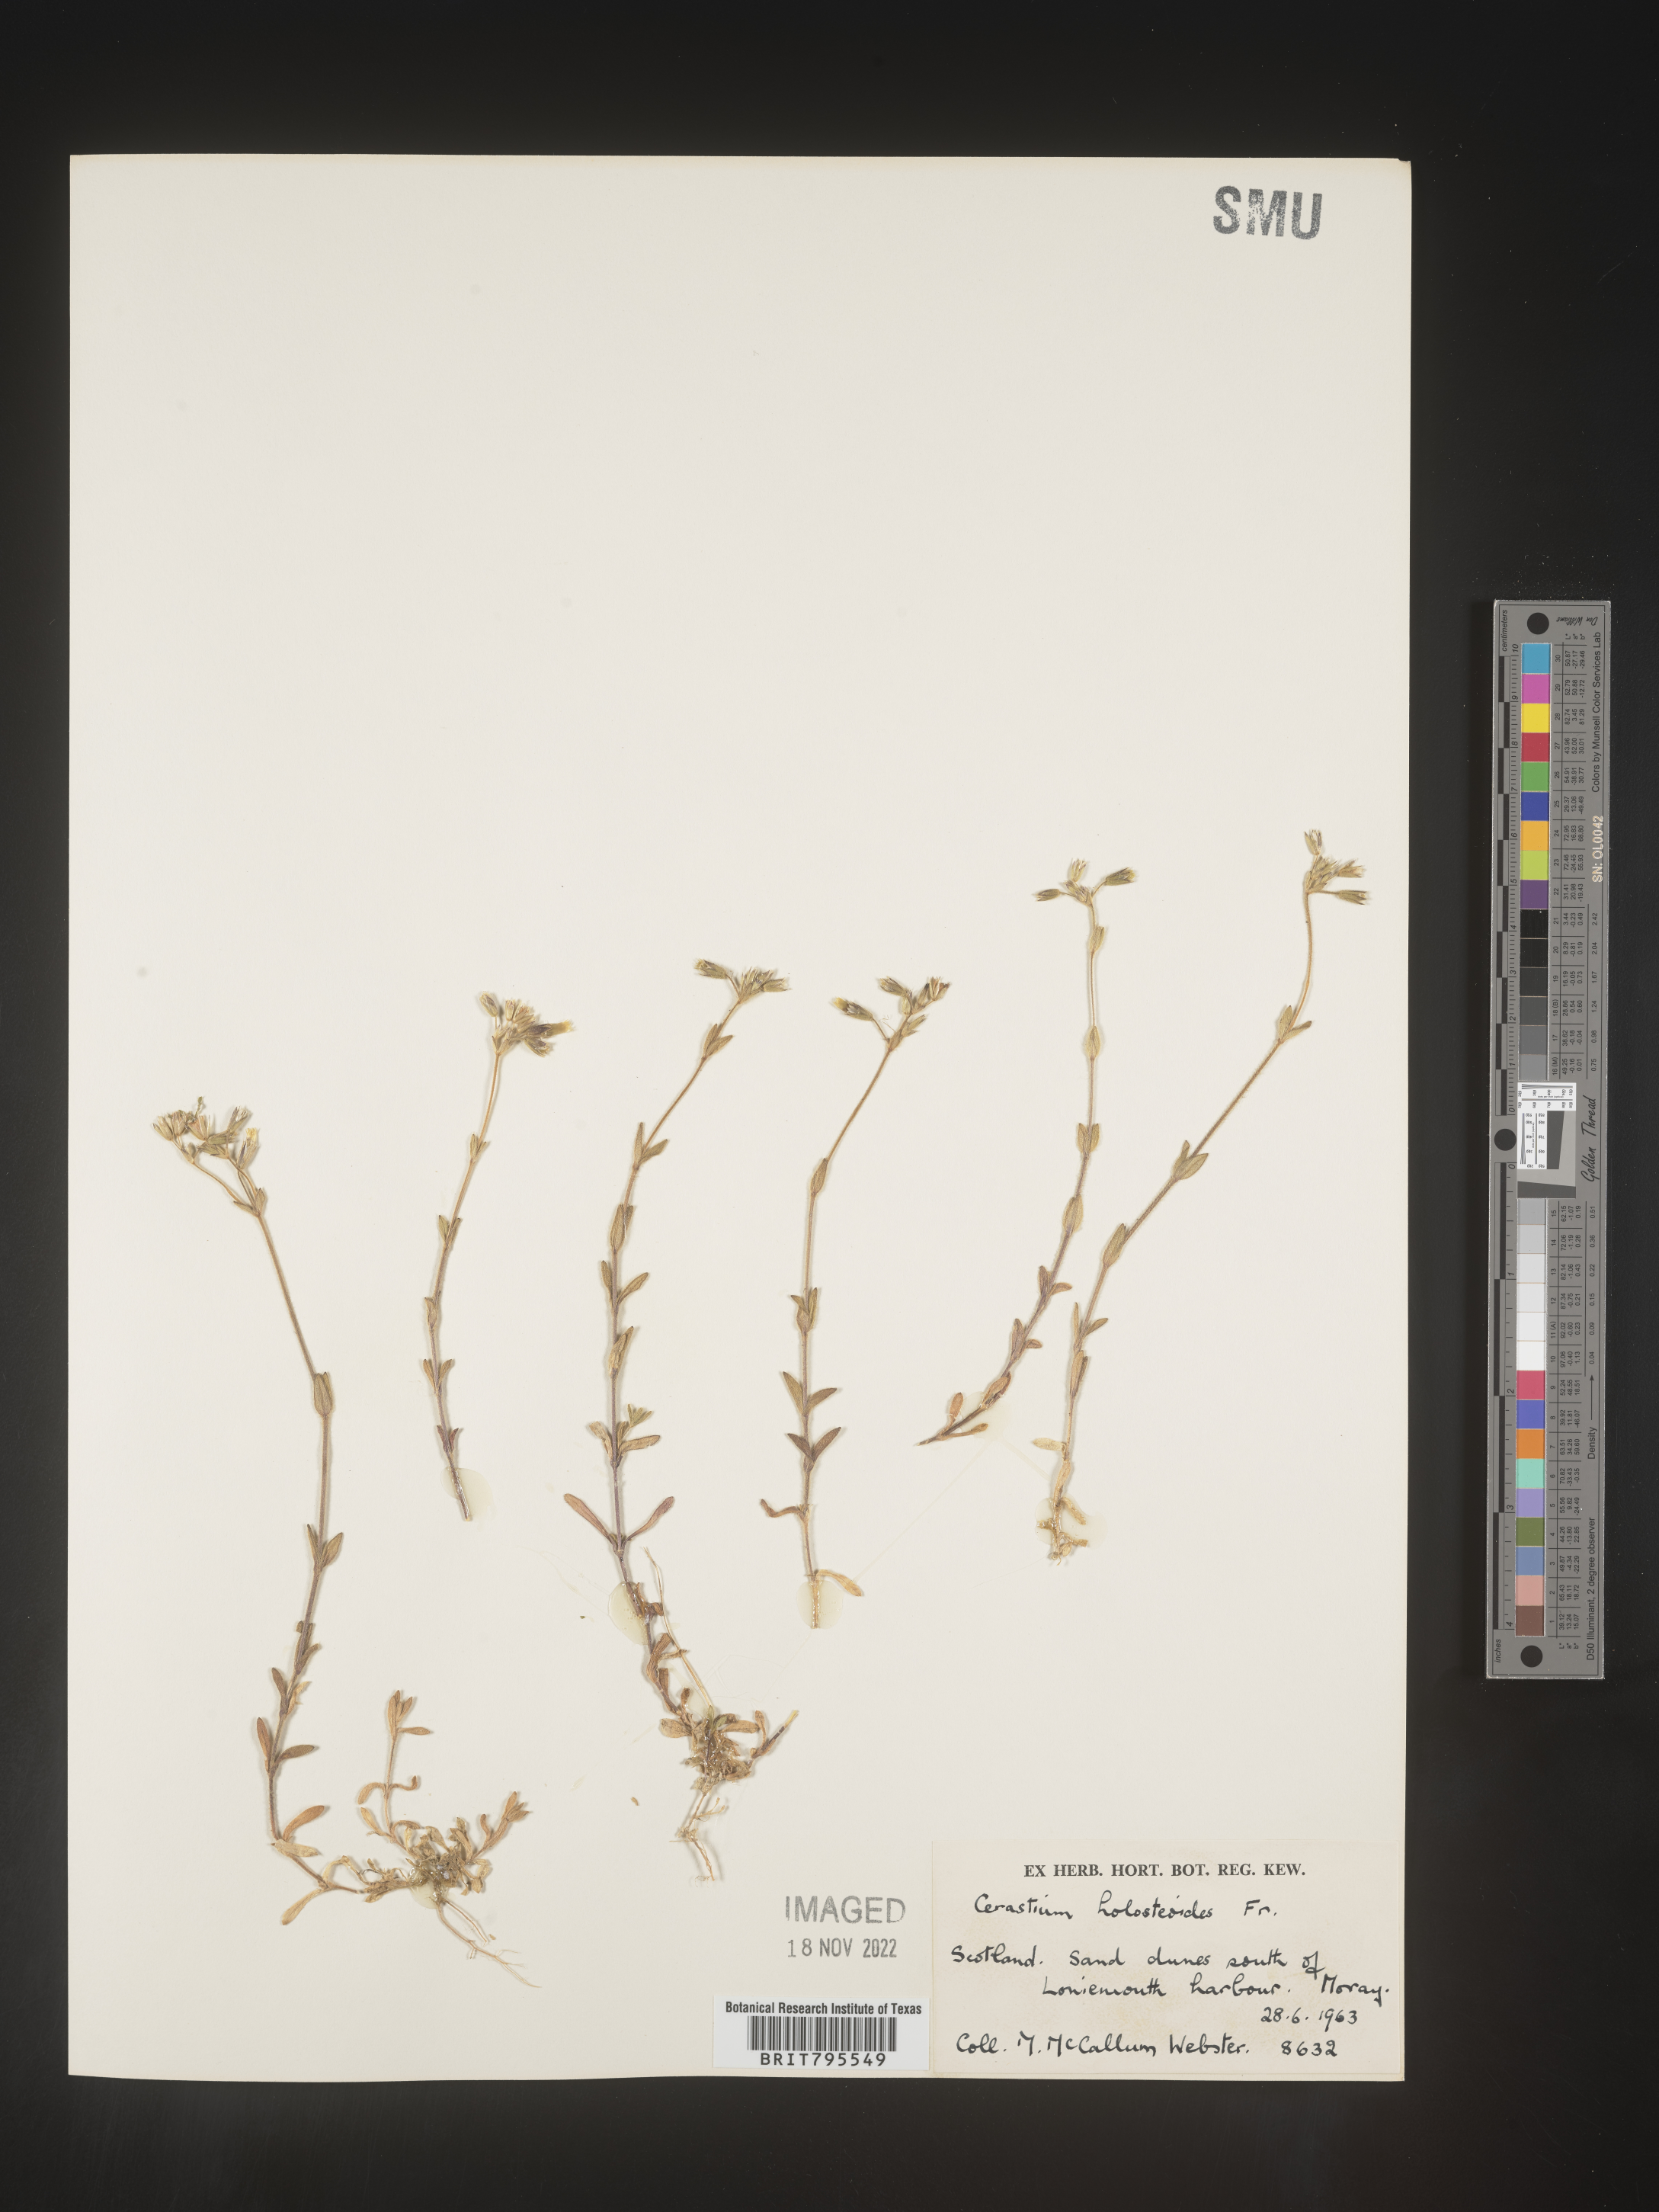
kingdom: Plantae
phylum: Tracheophyta
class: Magnoliopsida
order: Caryophyllales
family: Caryophyllaceae
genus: Cerastium
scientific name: Cerastium
